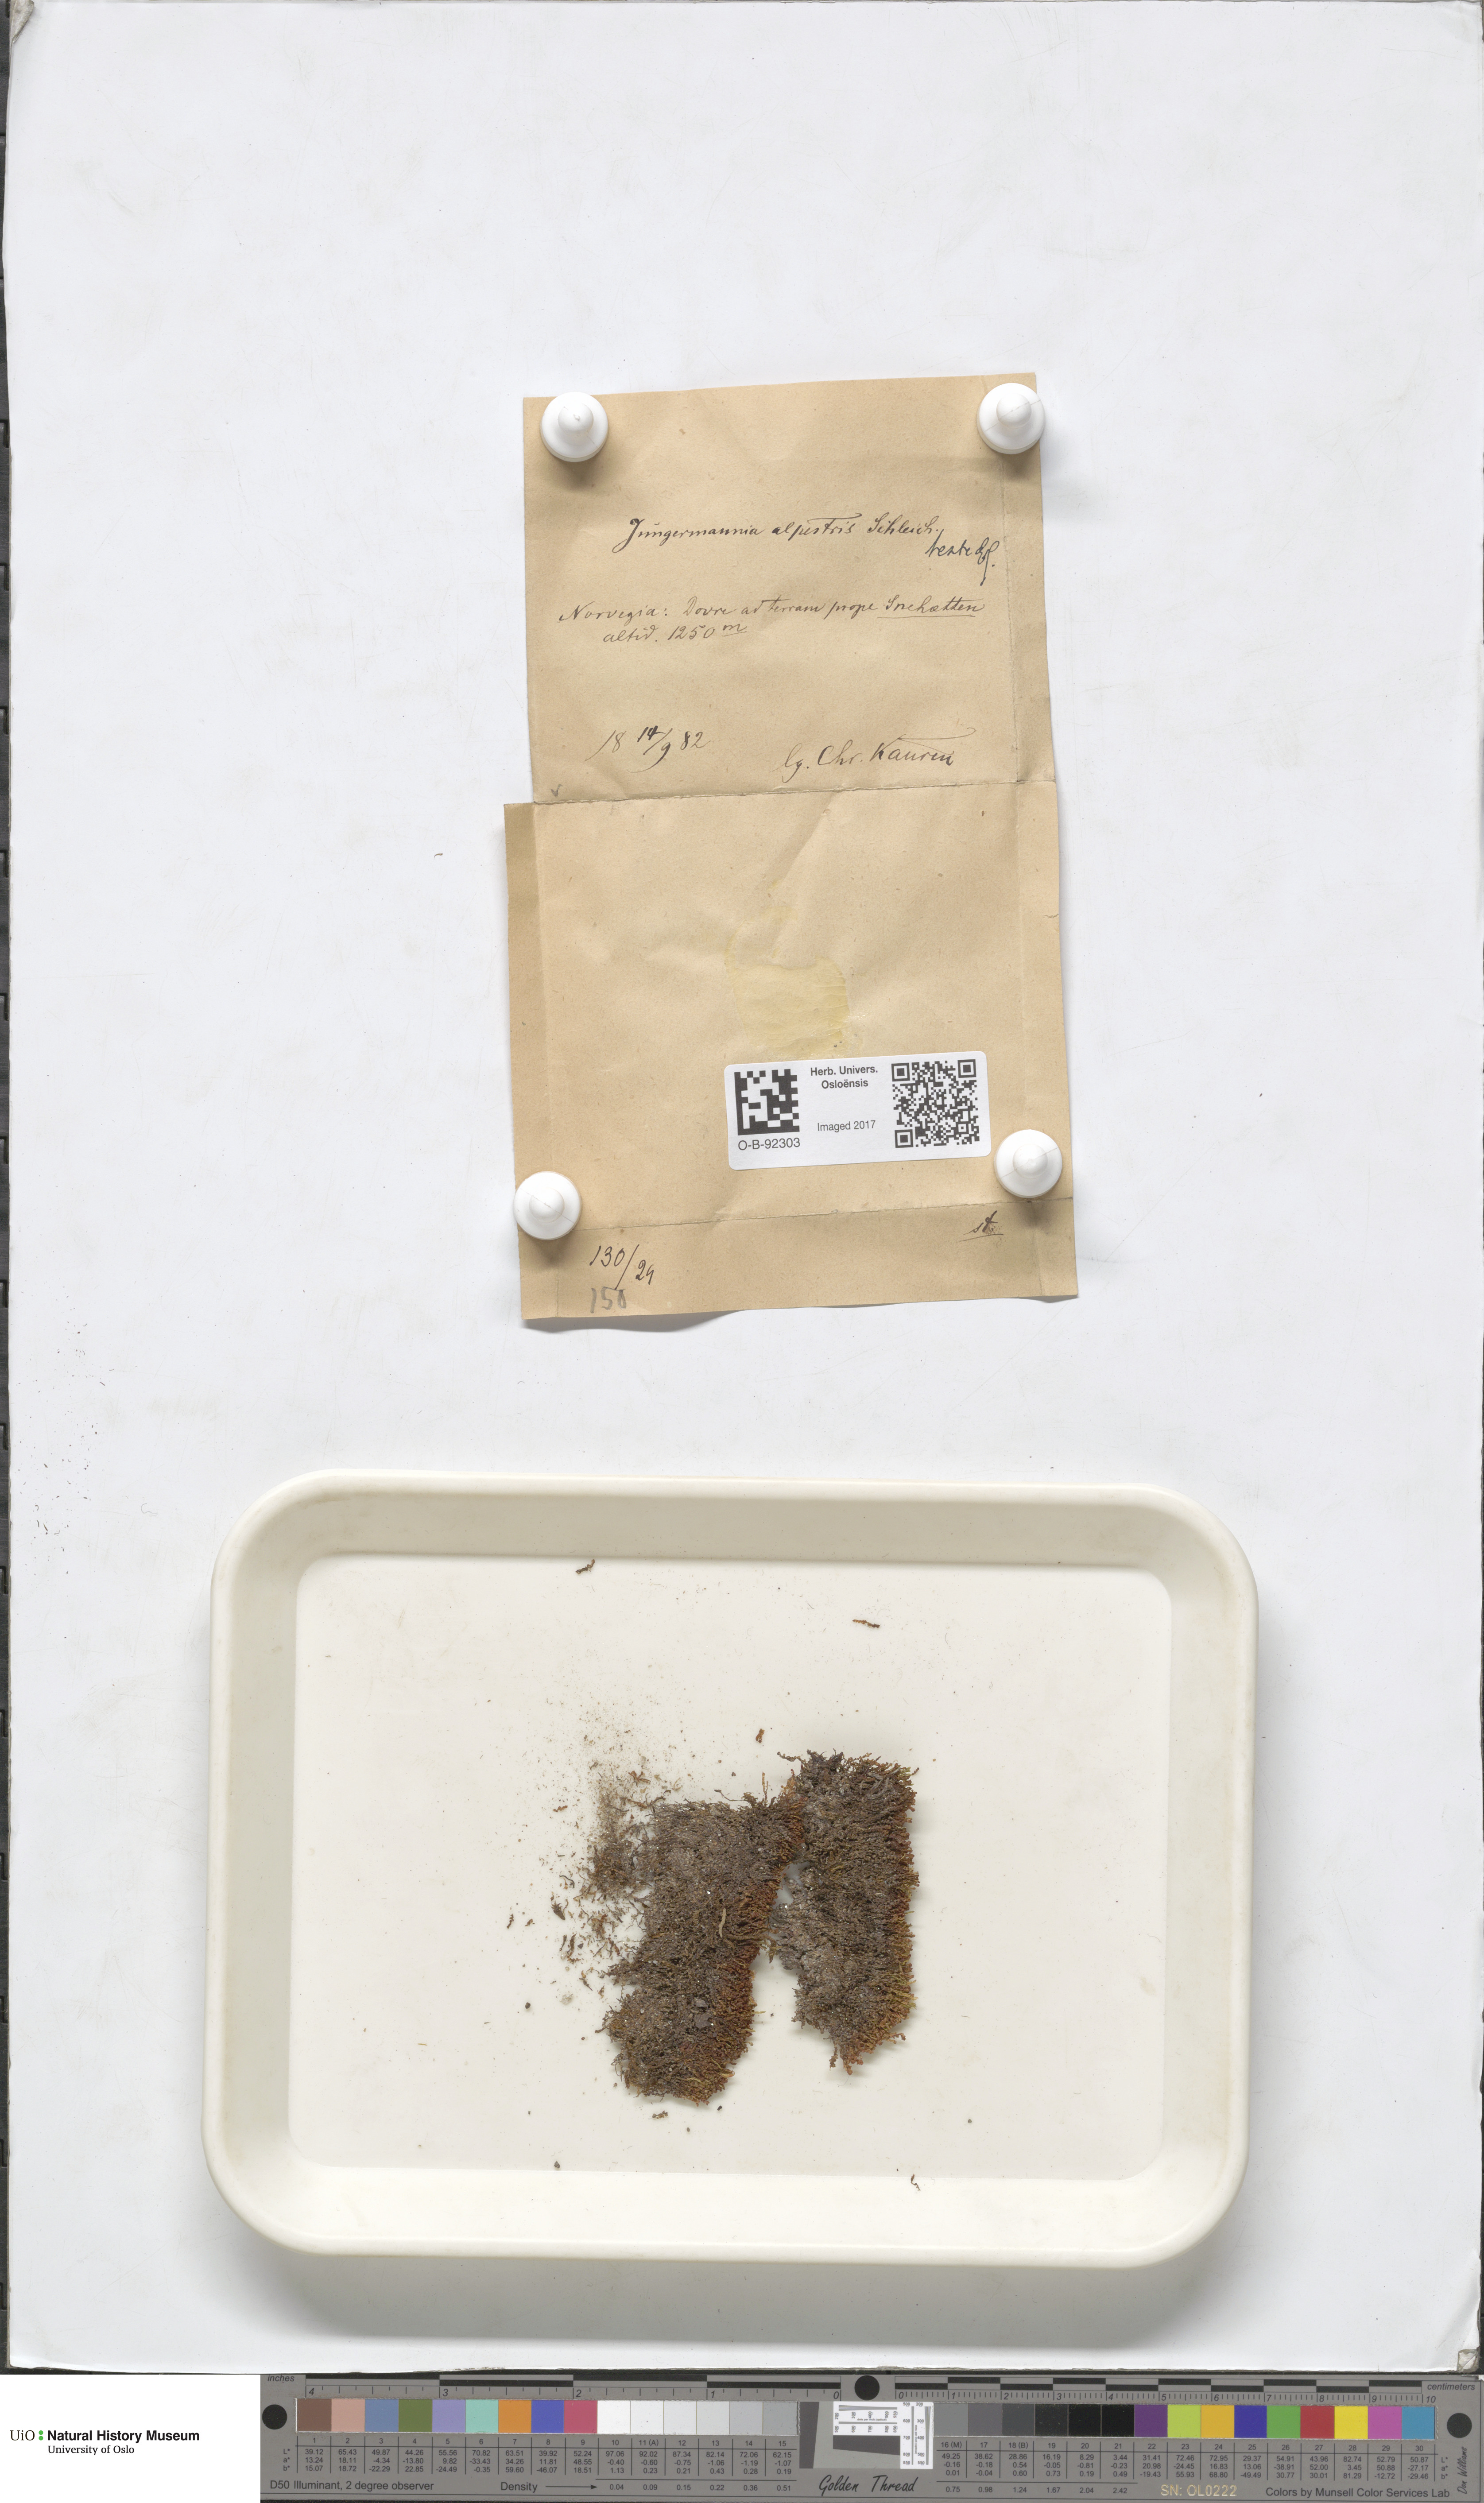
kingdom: Plantae
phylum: Marchantiophyta
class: Jungermanniopsida
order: Jungermanniales
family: Anastrophyllaceae
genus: Barbilophozia
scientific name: Barbilophozia sudetica
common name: Hill notchwort
